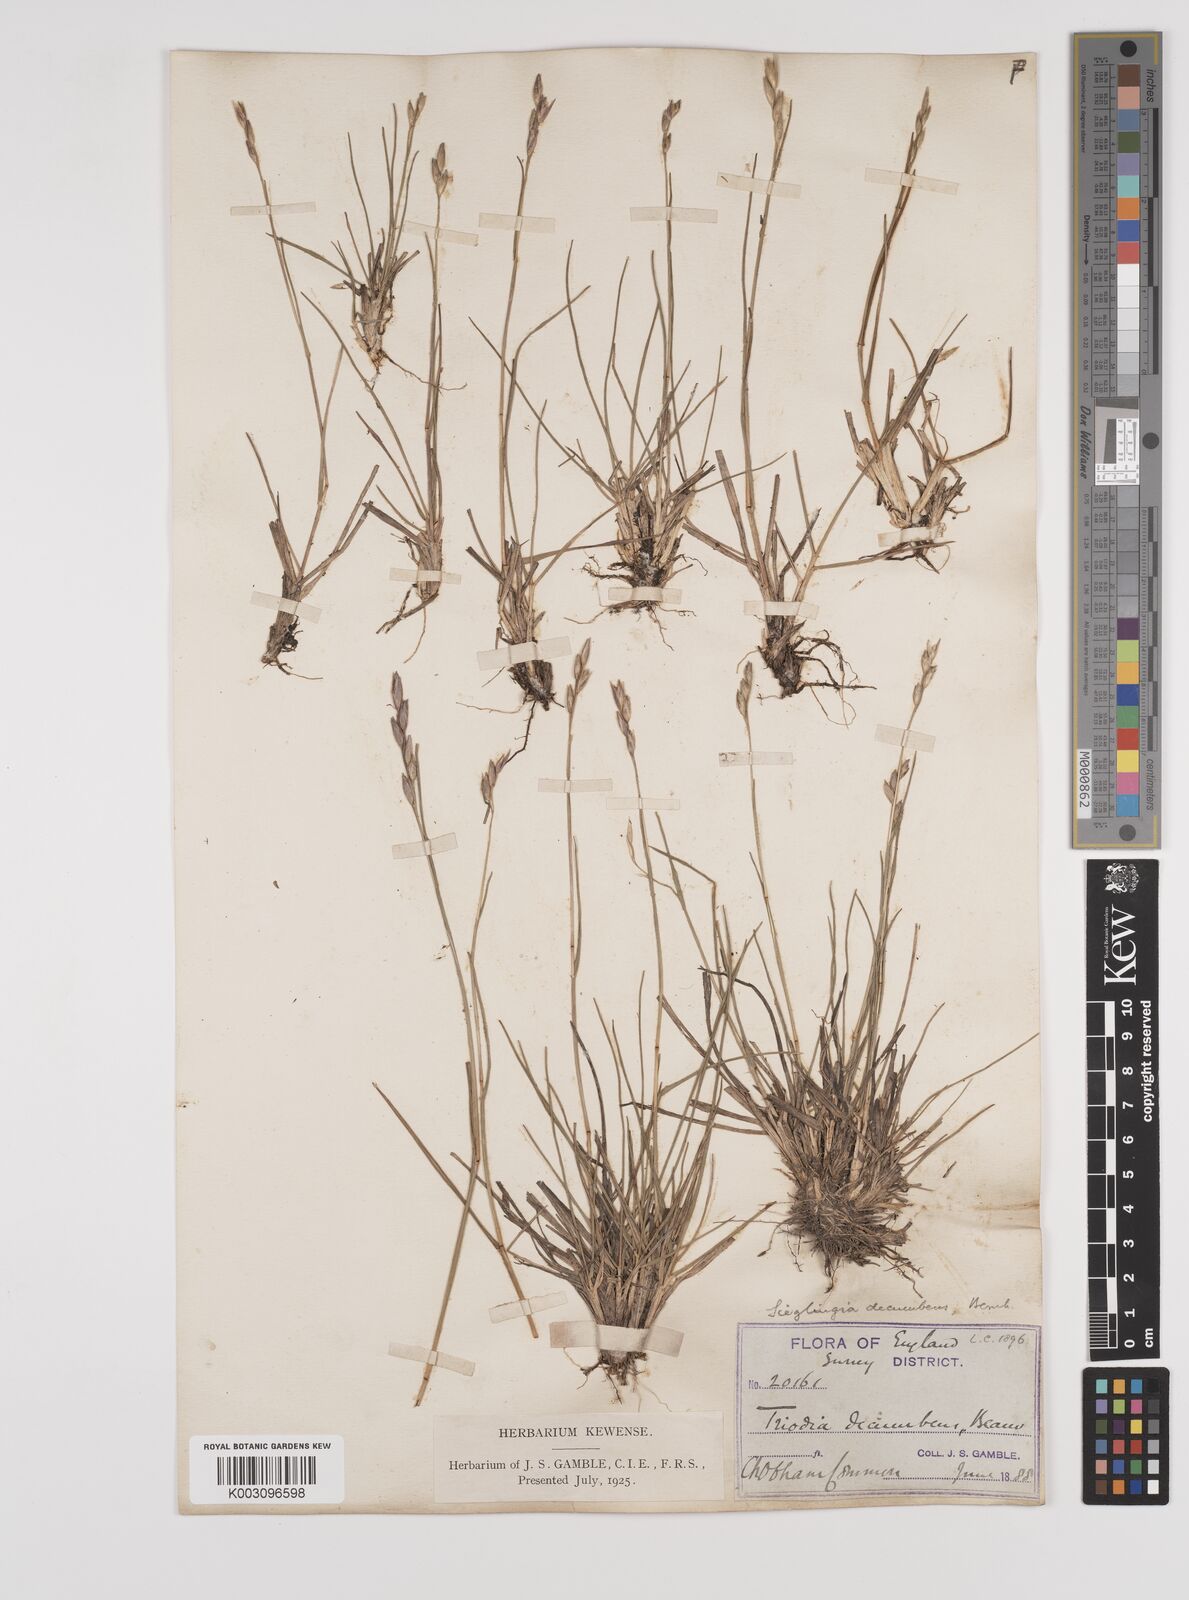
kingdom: Plantae
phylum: Tracheophyta
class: Liliopsida
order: Poales
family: Poaceae
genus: Danthonia
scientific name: Danthonia decumbens
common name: Common heathgrass
